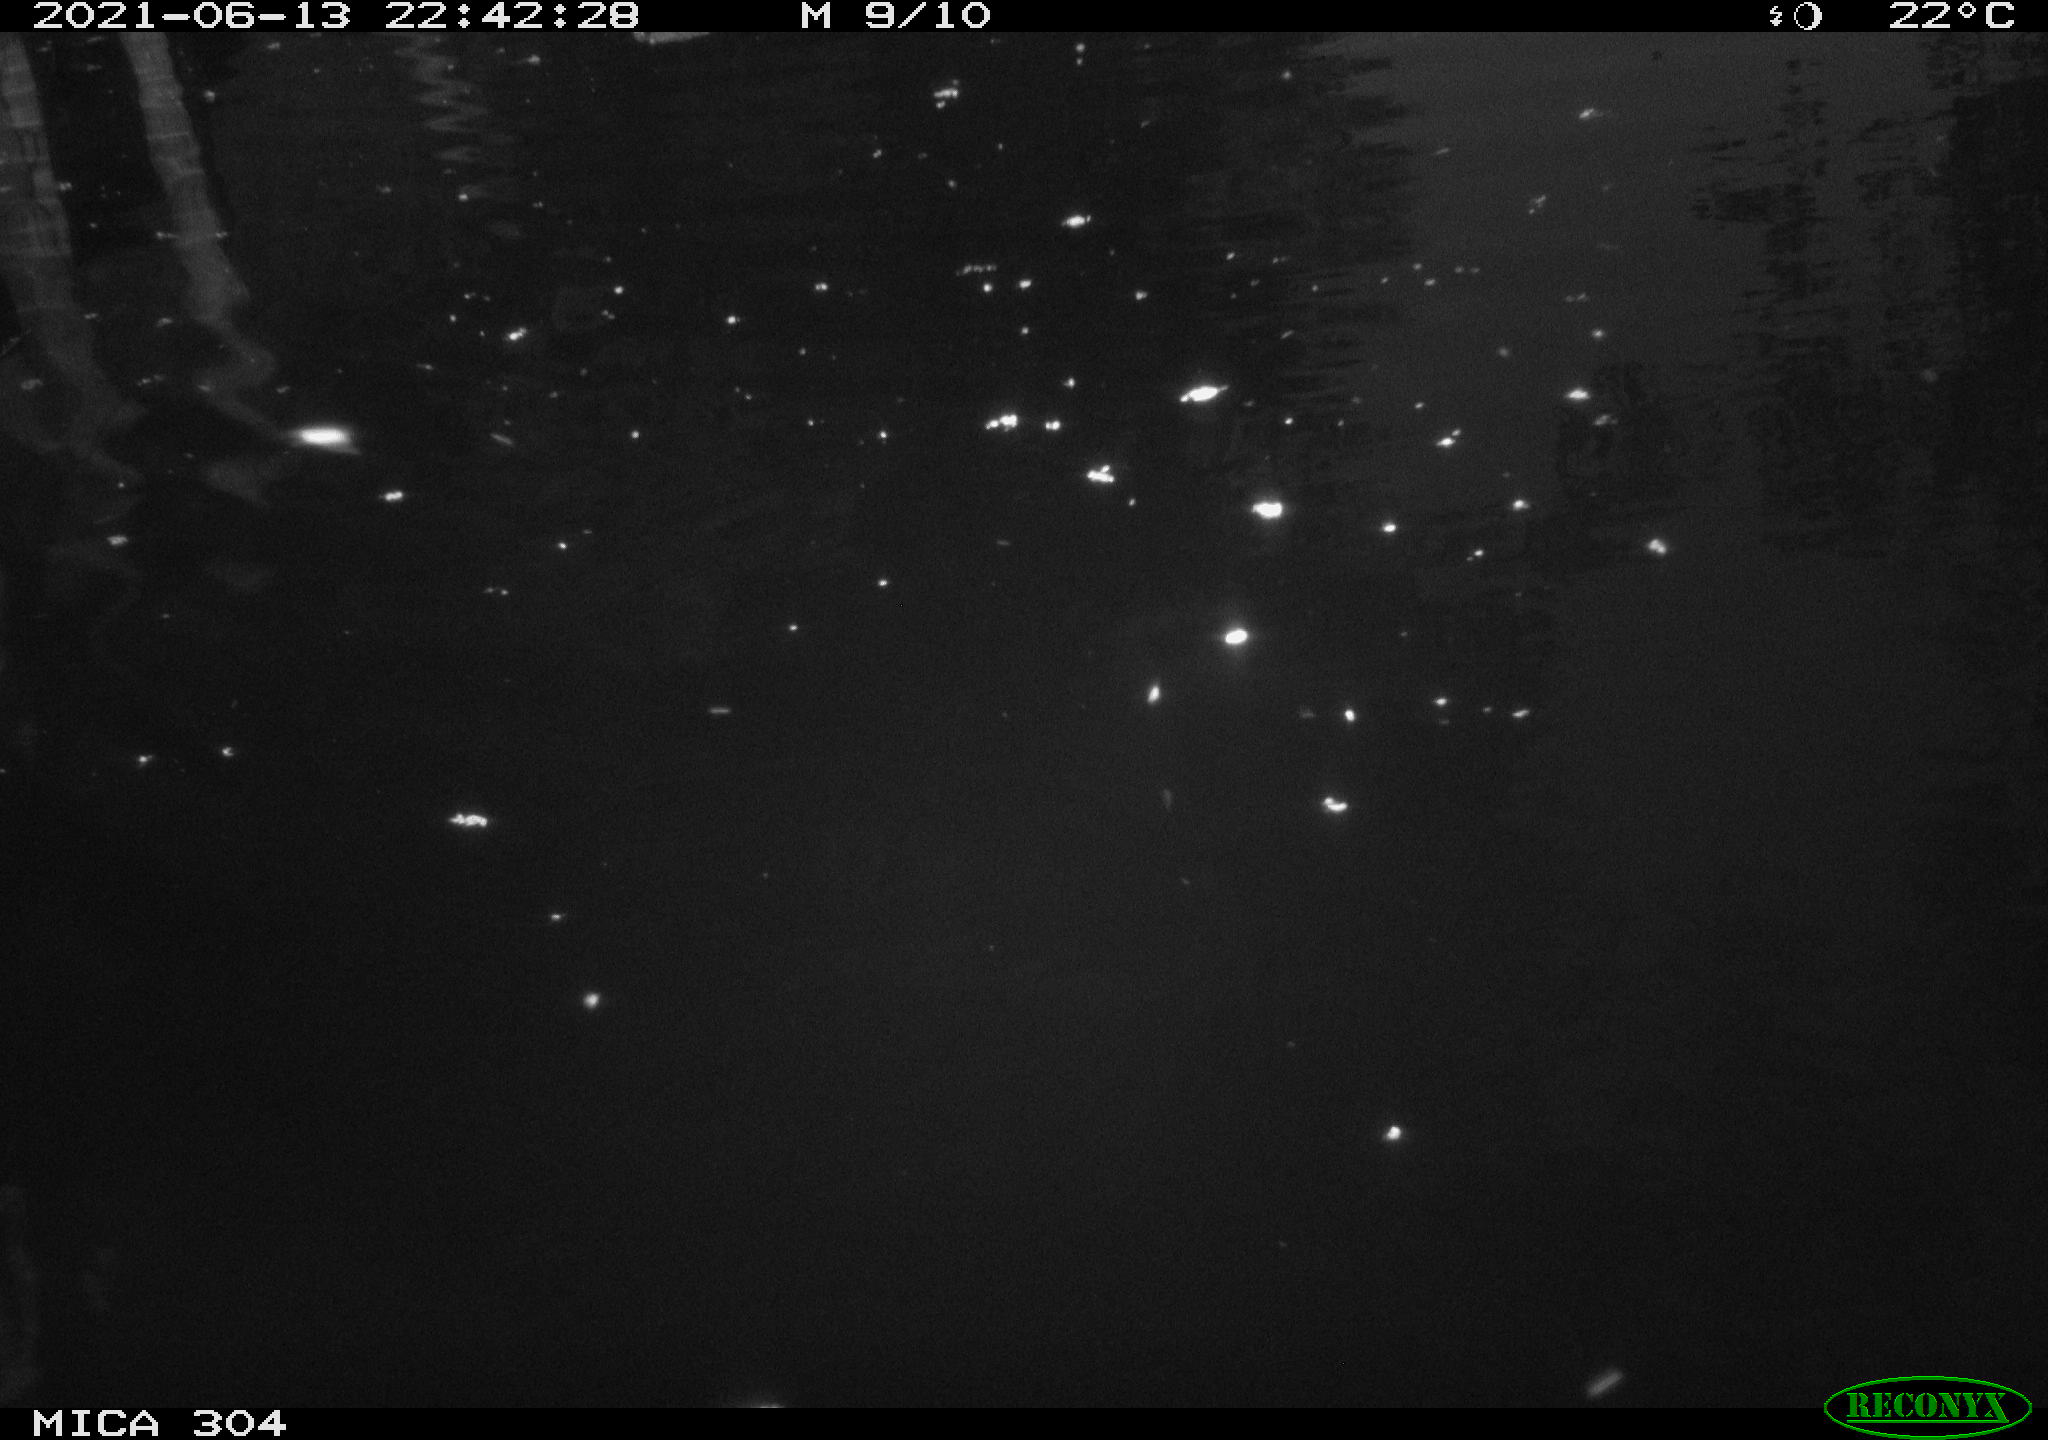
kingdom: Animalia
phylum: Chordata
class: Aves
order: Anseriformes
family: Anatidae
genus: Anas
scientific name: Anas platyrhynchos
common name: Mallard
